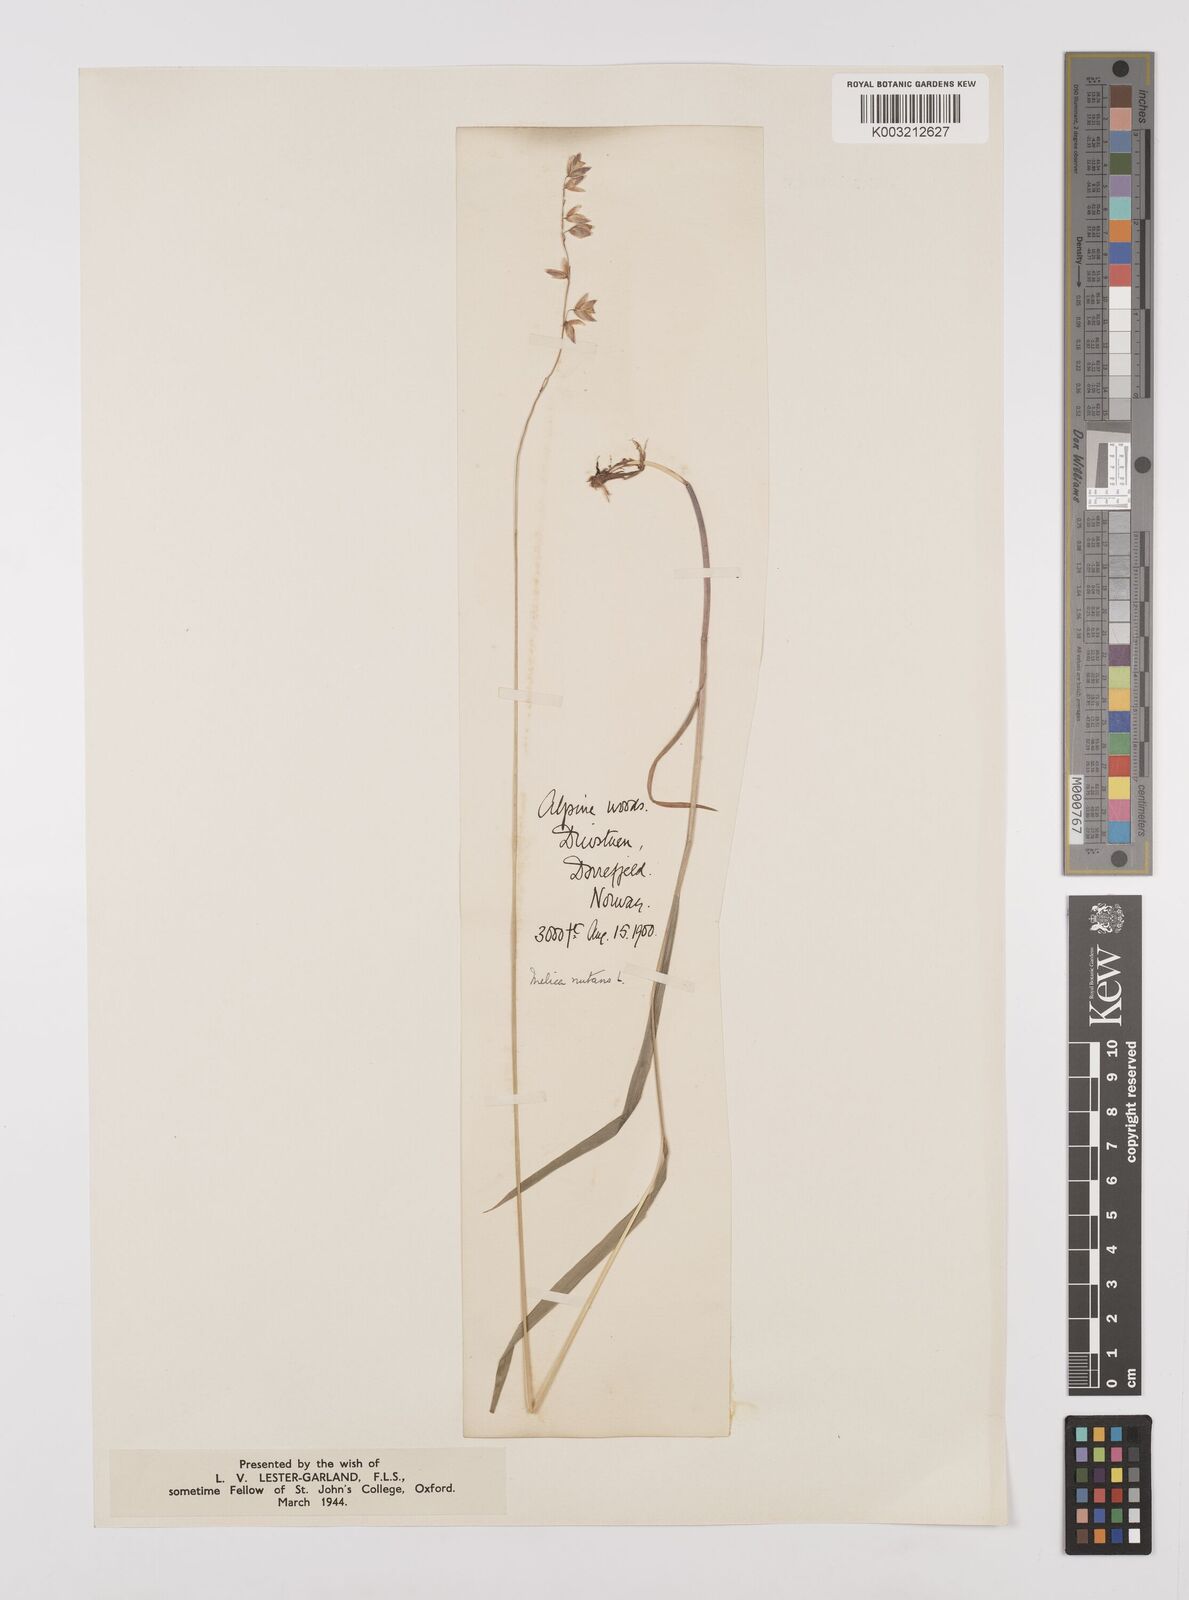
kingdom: Plantae
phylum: Tracheophyta
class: Liliopsida
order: Poales
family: Poaceae
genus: Melica
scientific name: Melica
